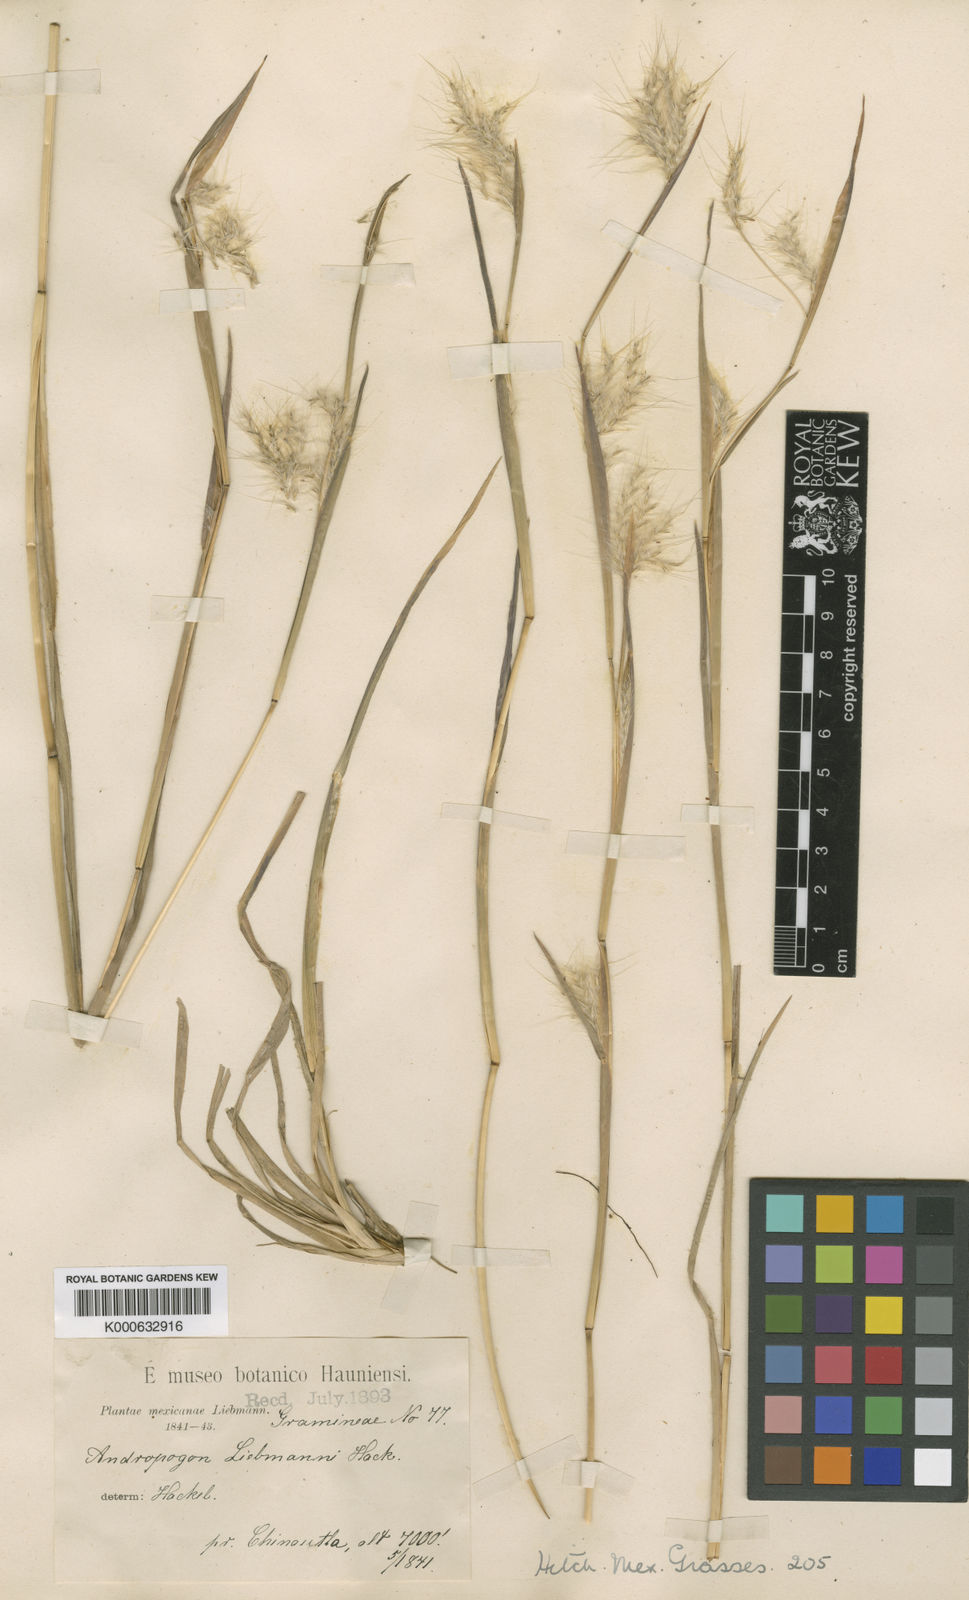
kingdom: Plantae
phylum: Tracheophyta
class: Liliopsida
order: Poales
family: Poaceae
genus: Andropogon
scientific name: Andropogon liebmannii
